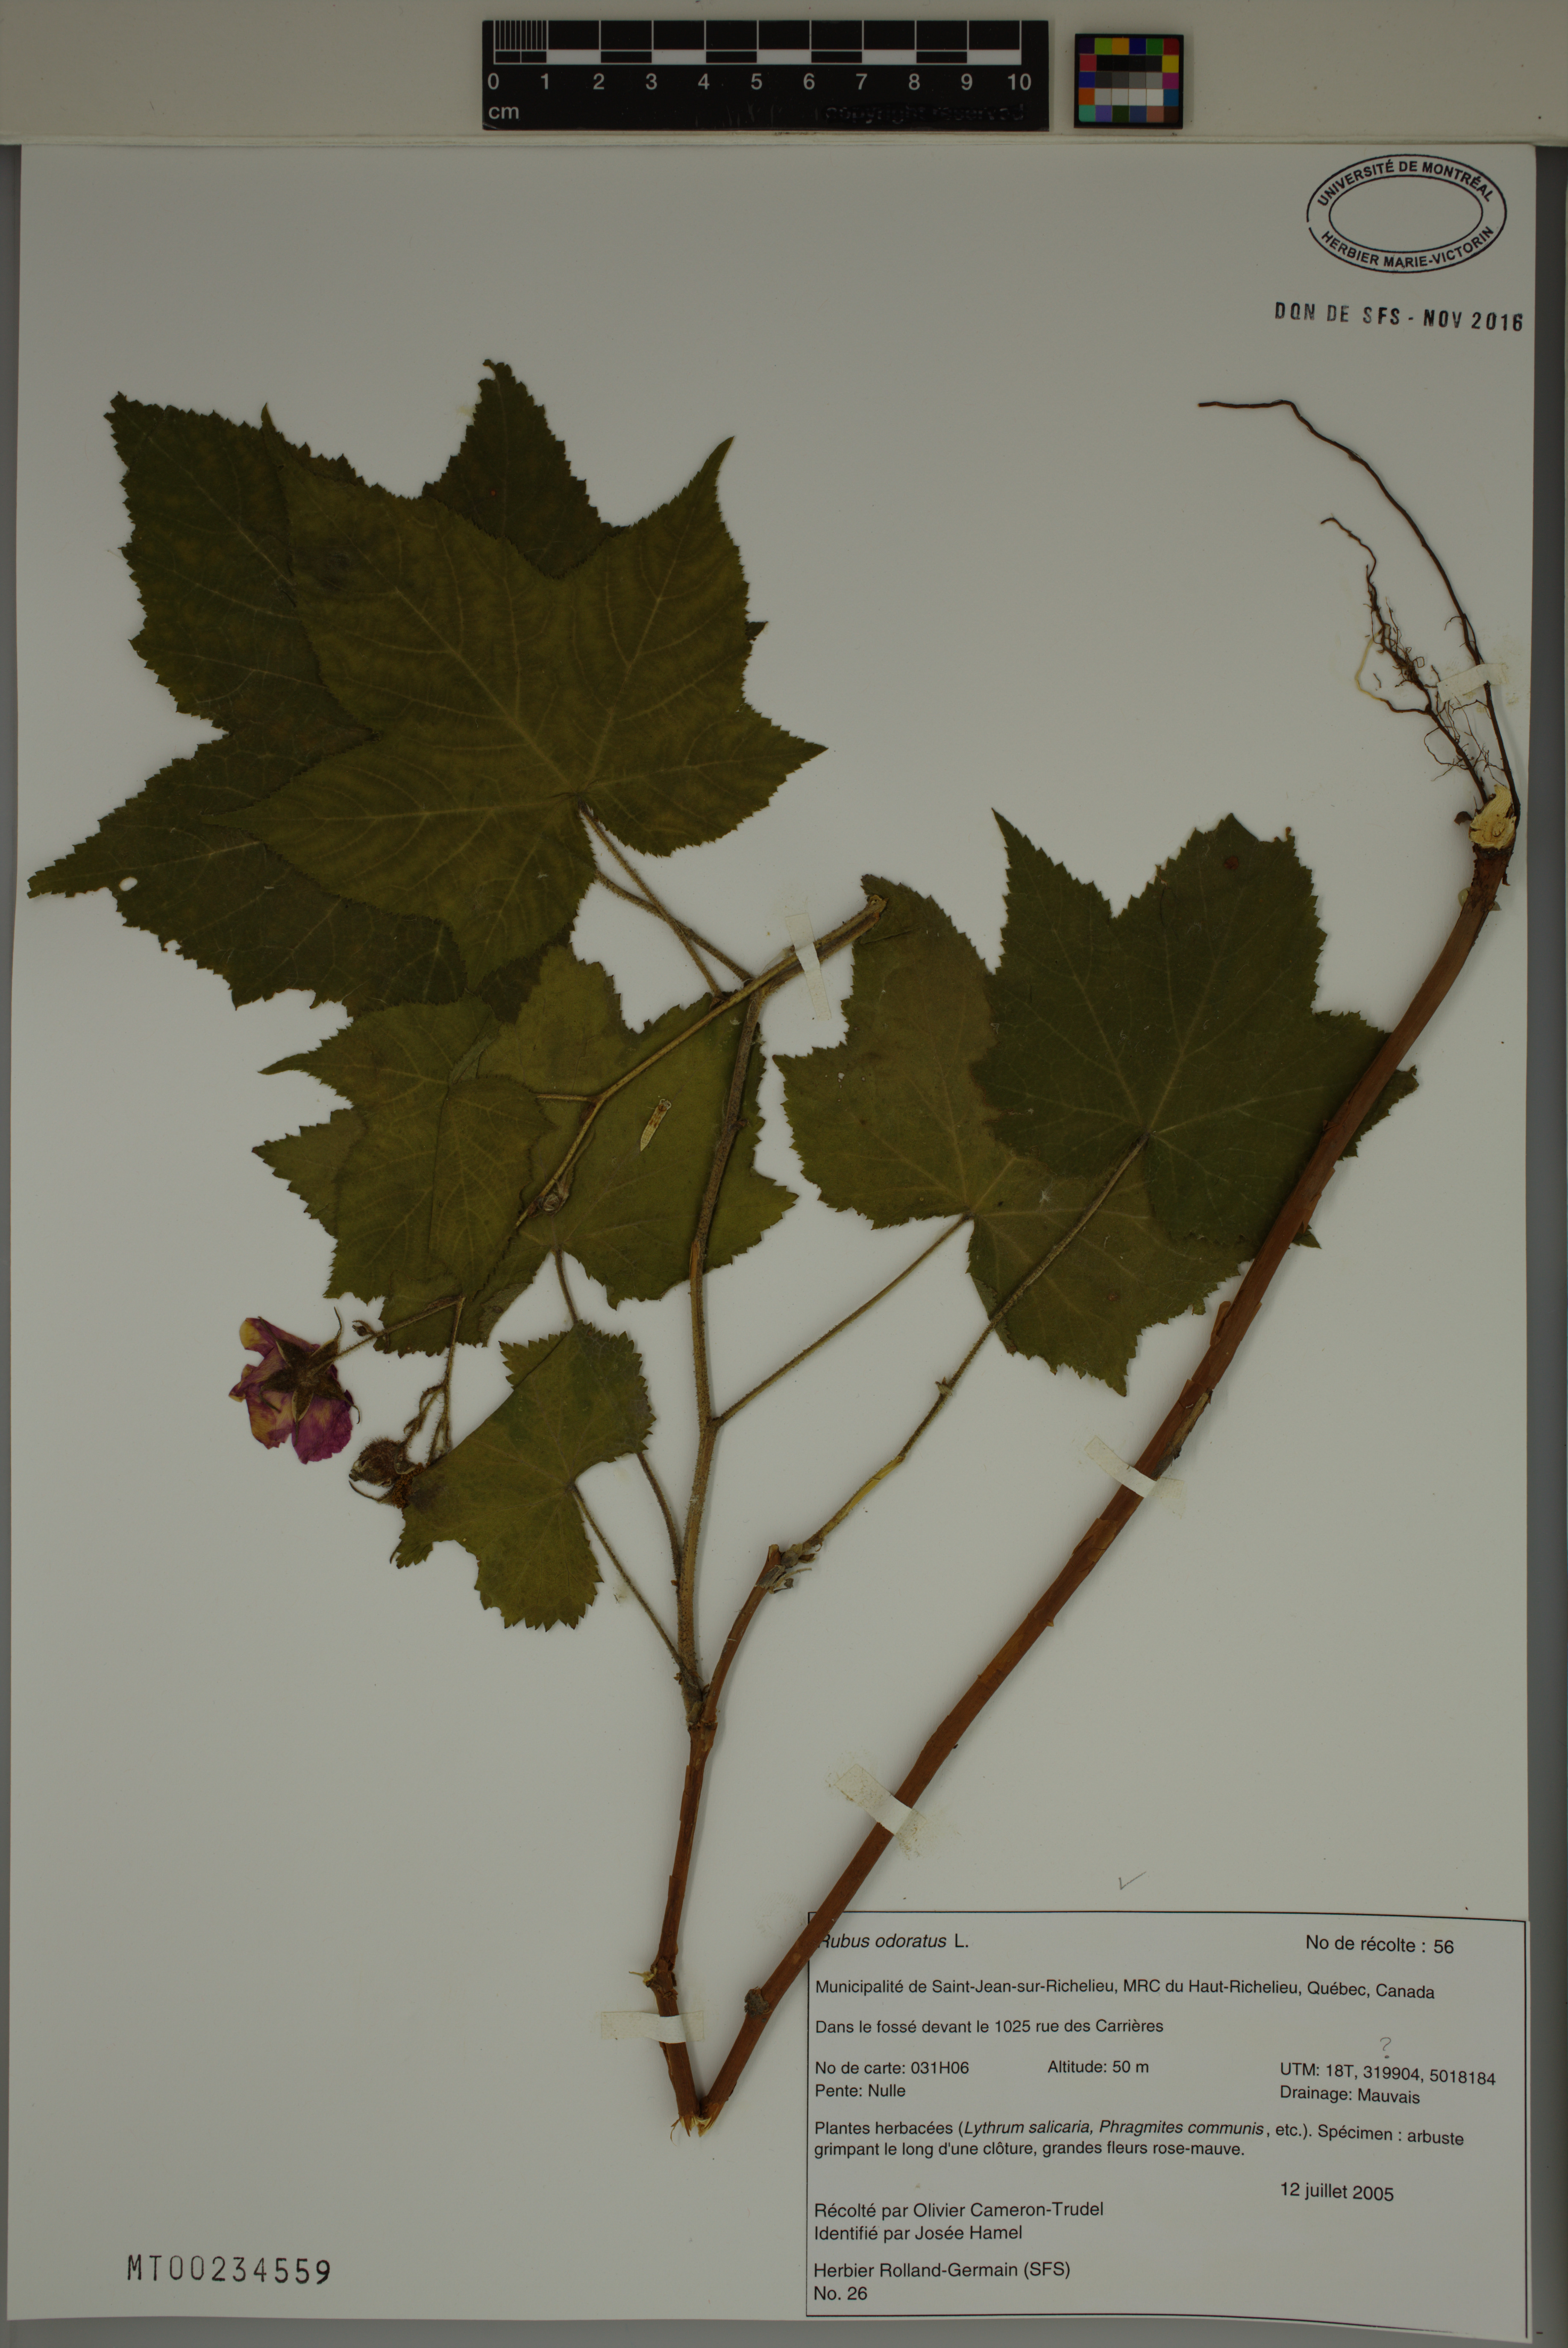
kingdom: Plantae
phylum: Tracheophyta
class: Magnoliopsida
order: Rosales
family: Rosaceae
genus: Rubus
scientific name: Rubus odoratus
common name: Purple-flowered raspberry
